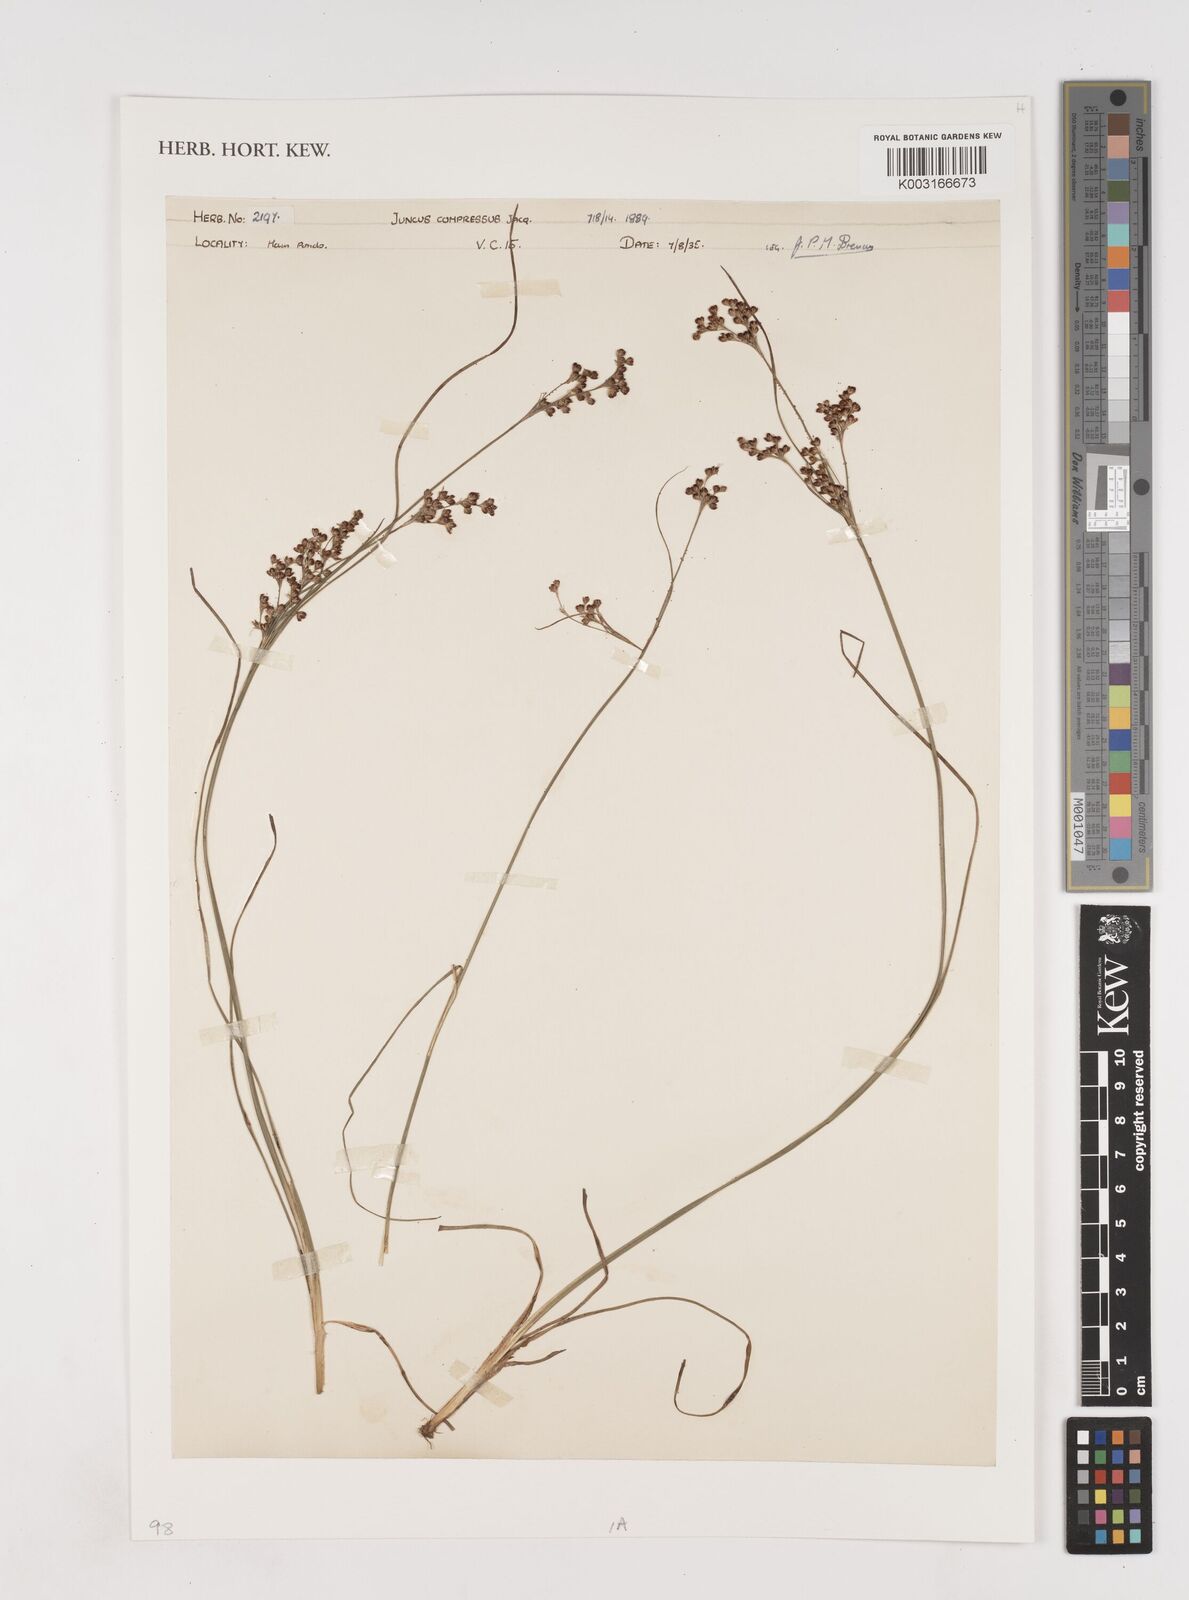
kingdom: Plantae
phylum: Tracheophyta
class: Liliopsida
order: Poales
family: Juncaceae
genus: Juncus
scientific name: Juncus compressus
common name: Round-fruited rush
